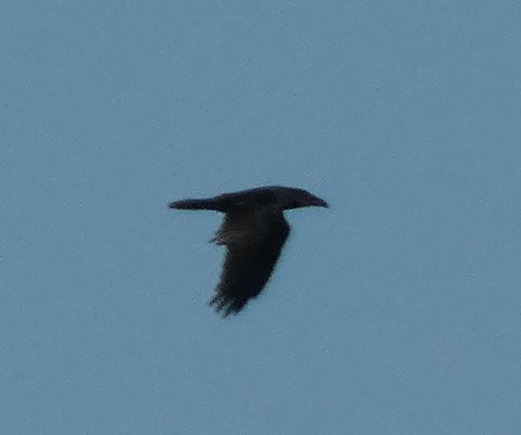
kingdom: Animalia
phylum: Chordata
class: Aves
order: Passeriformes
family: Corvidae
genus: Corvus
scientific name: Corvus corax
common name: Ravn
